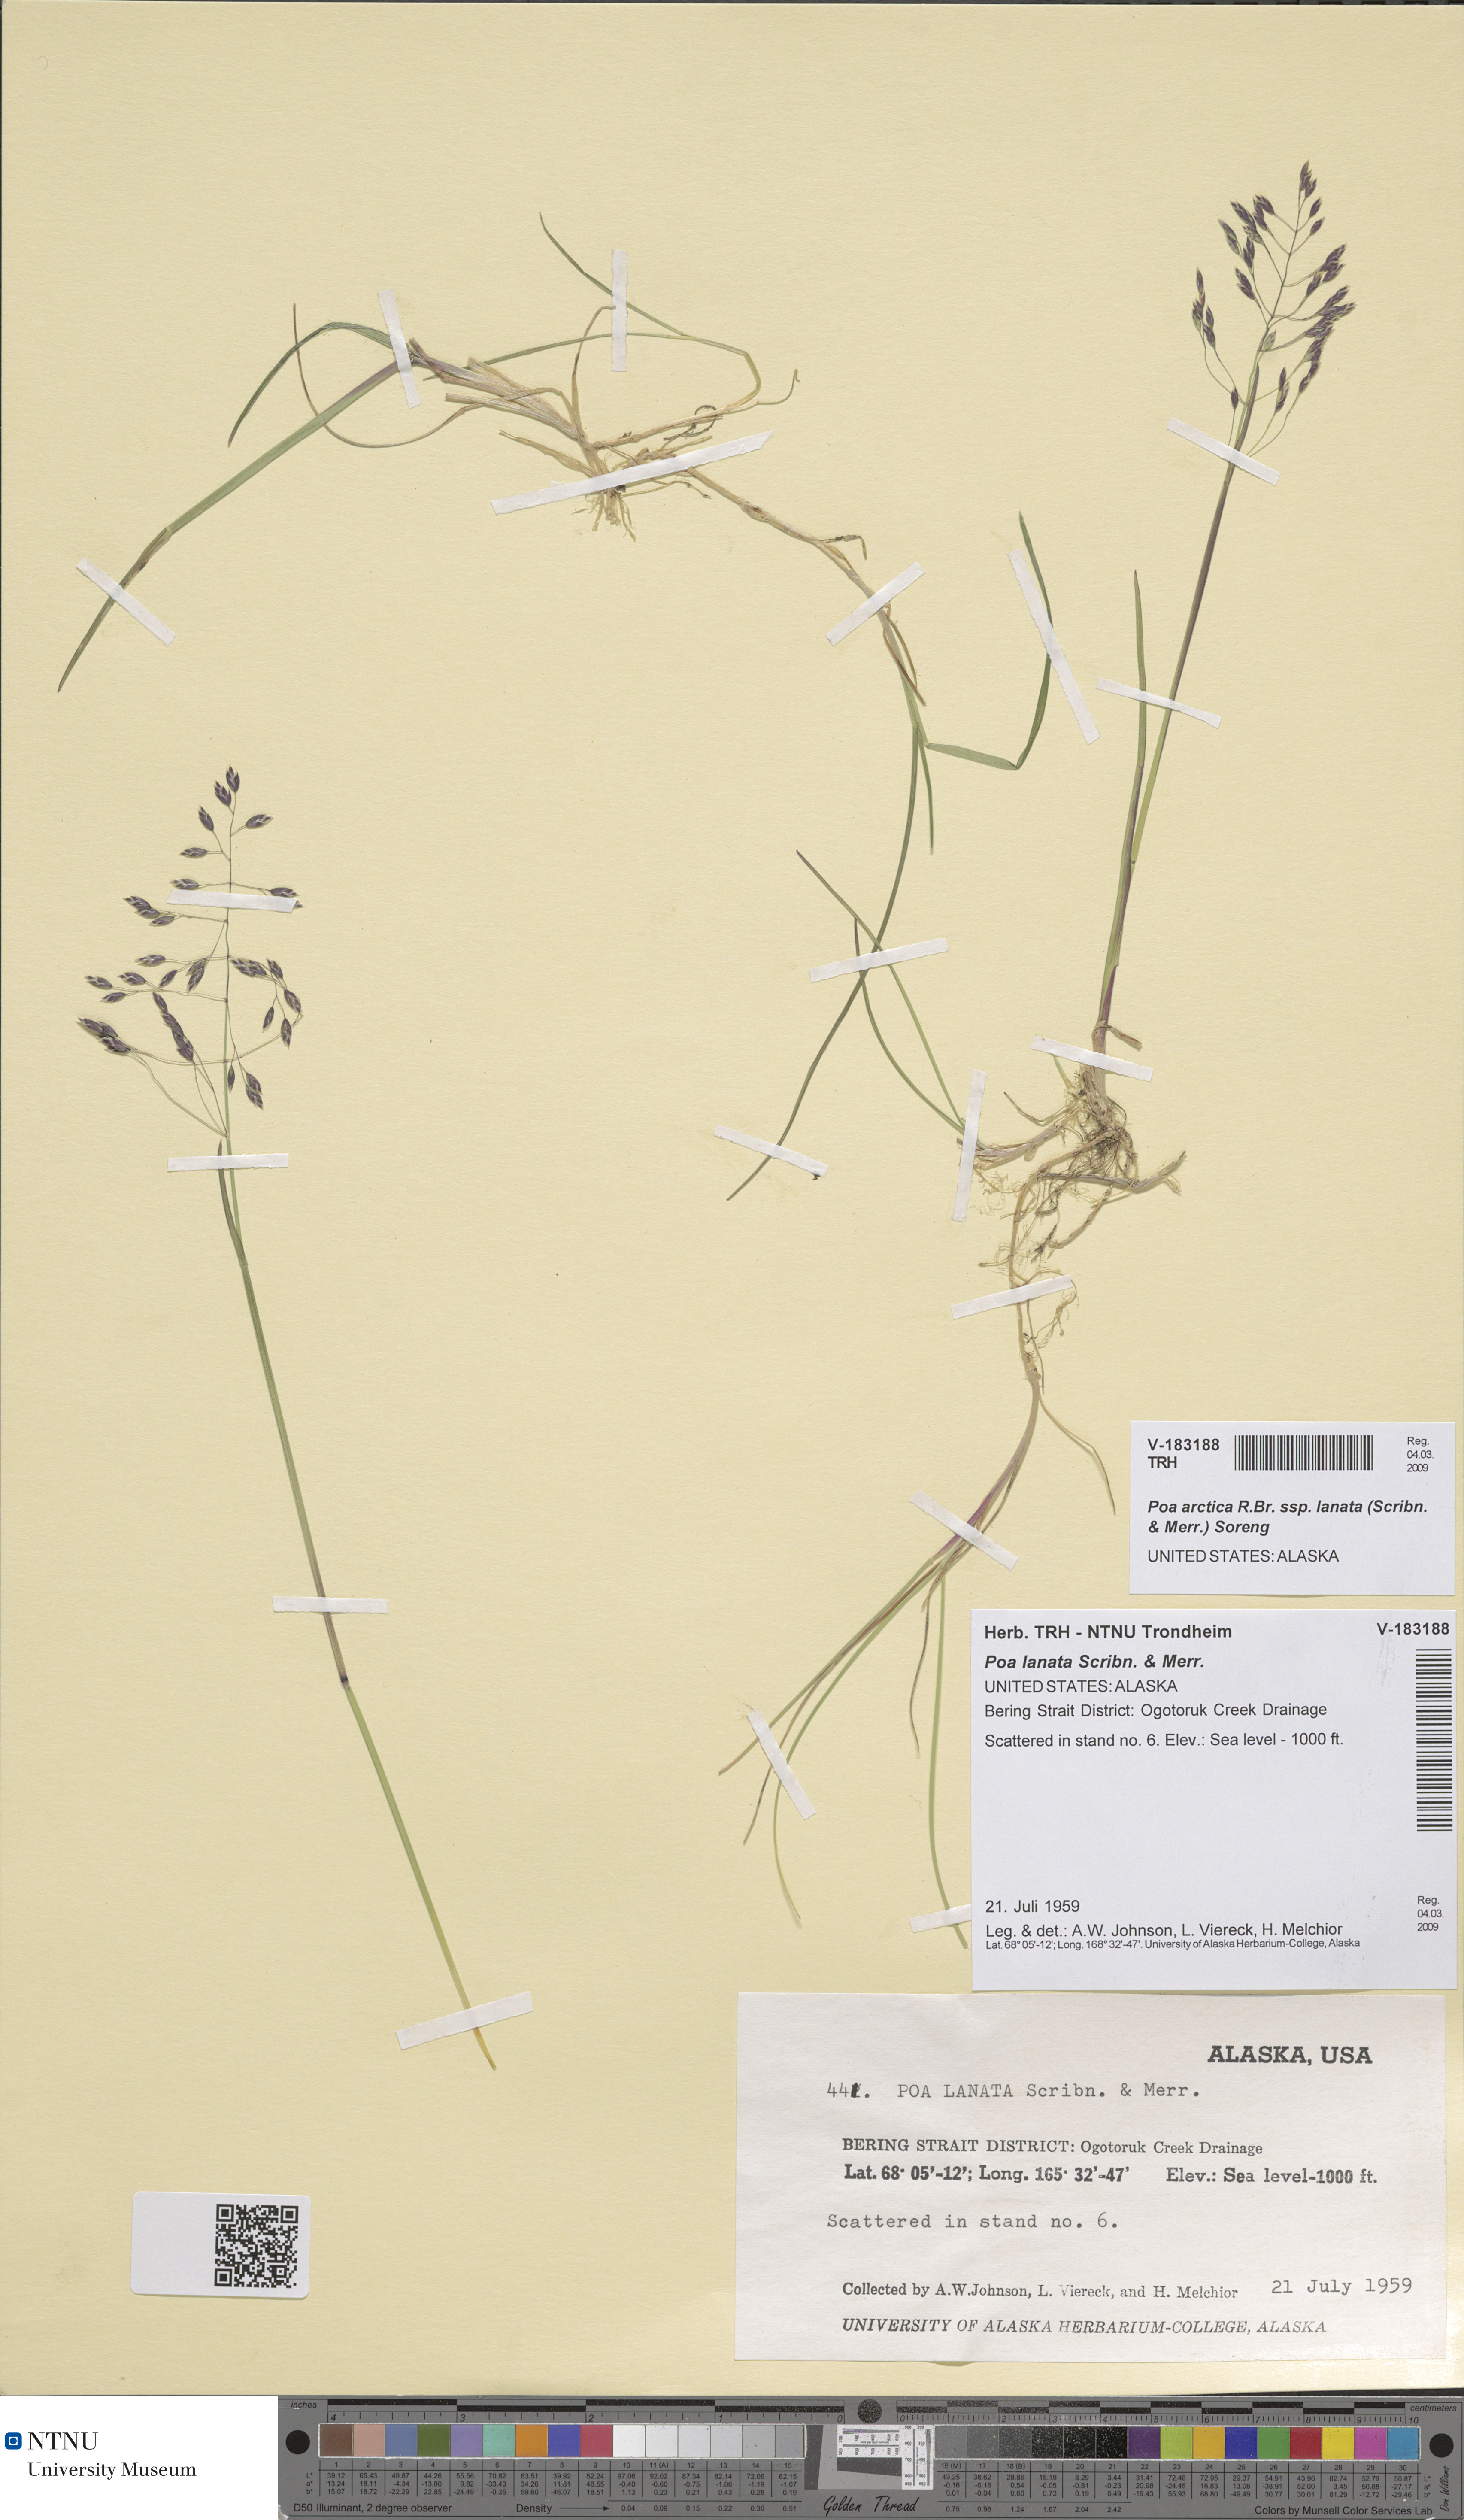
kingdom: Plantae
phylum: Tracheophyta
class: Liliopsida
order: Poales
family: Poaceae
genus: Poa
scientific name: Poa lanata
